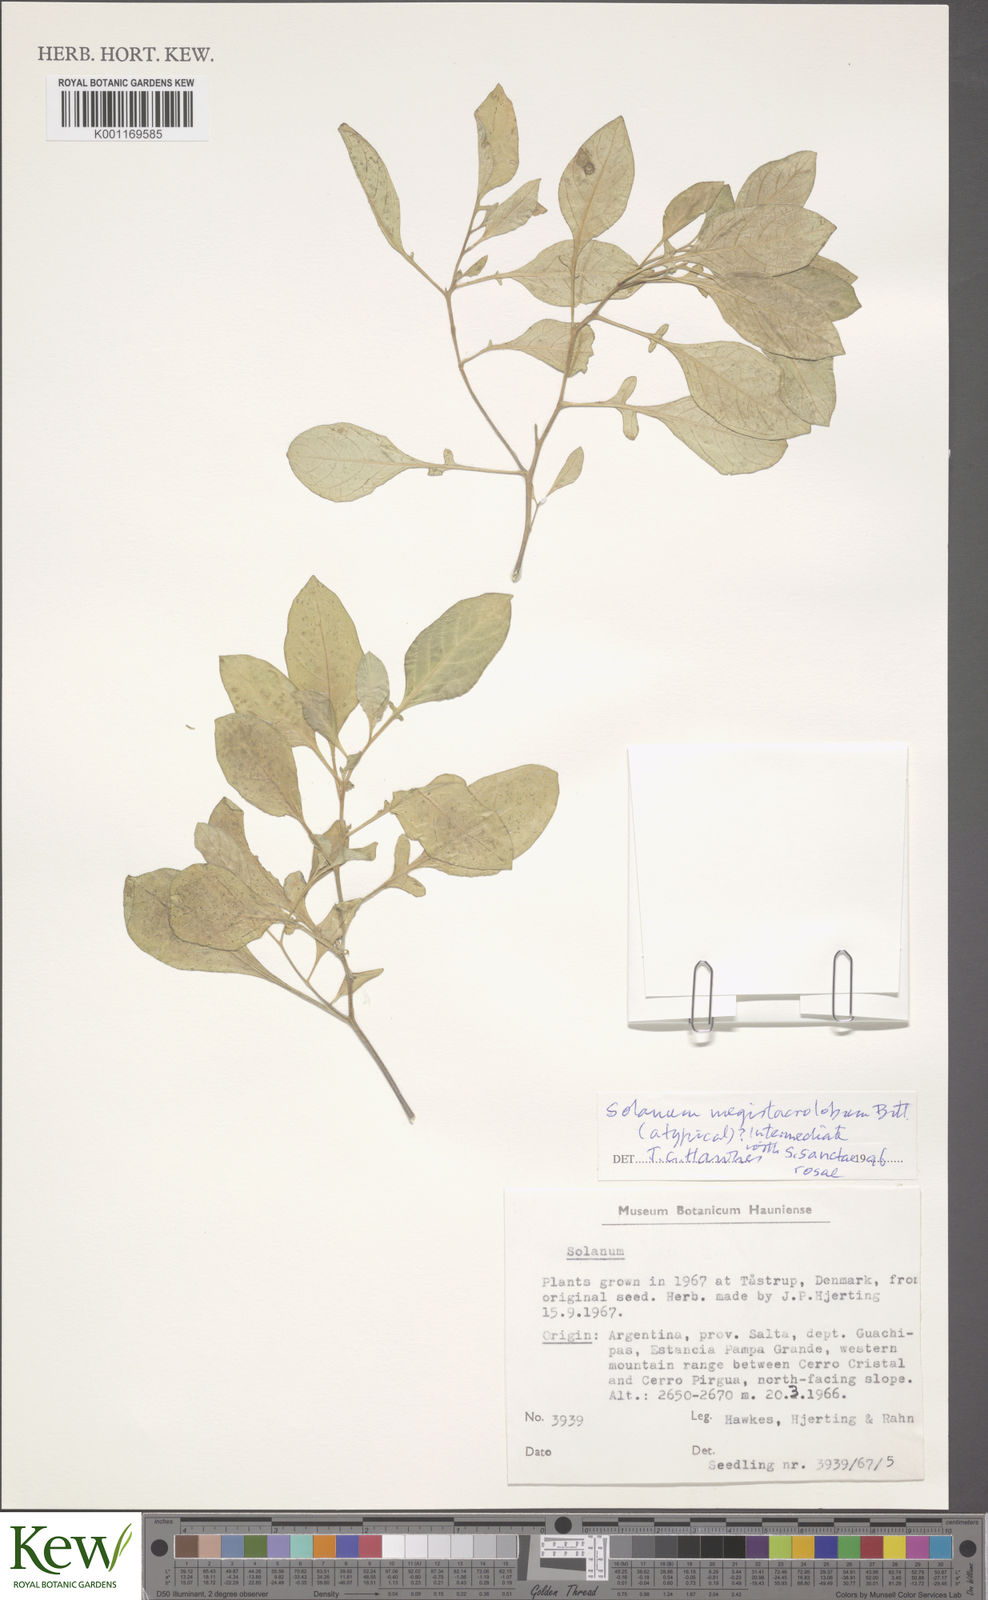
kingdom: Plantae
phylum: Tracheophyta
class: Magnoliopsida
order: Solanales
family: Solanaceae
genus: Solanum
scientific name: Solanum boliviense
